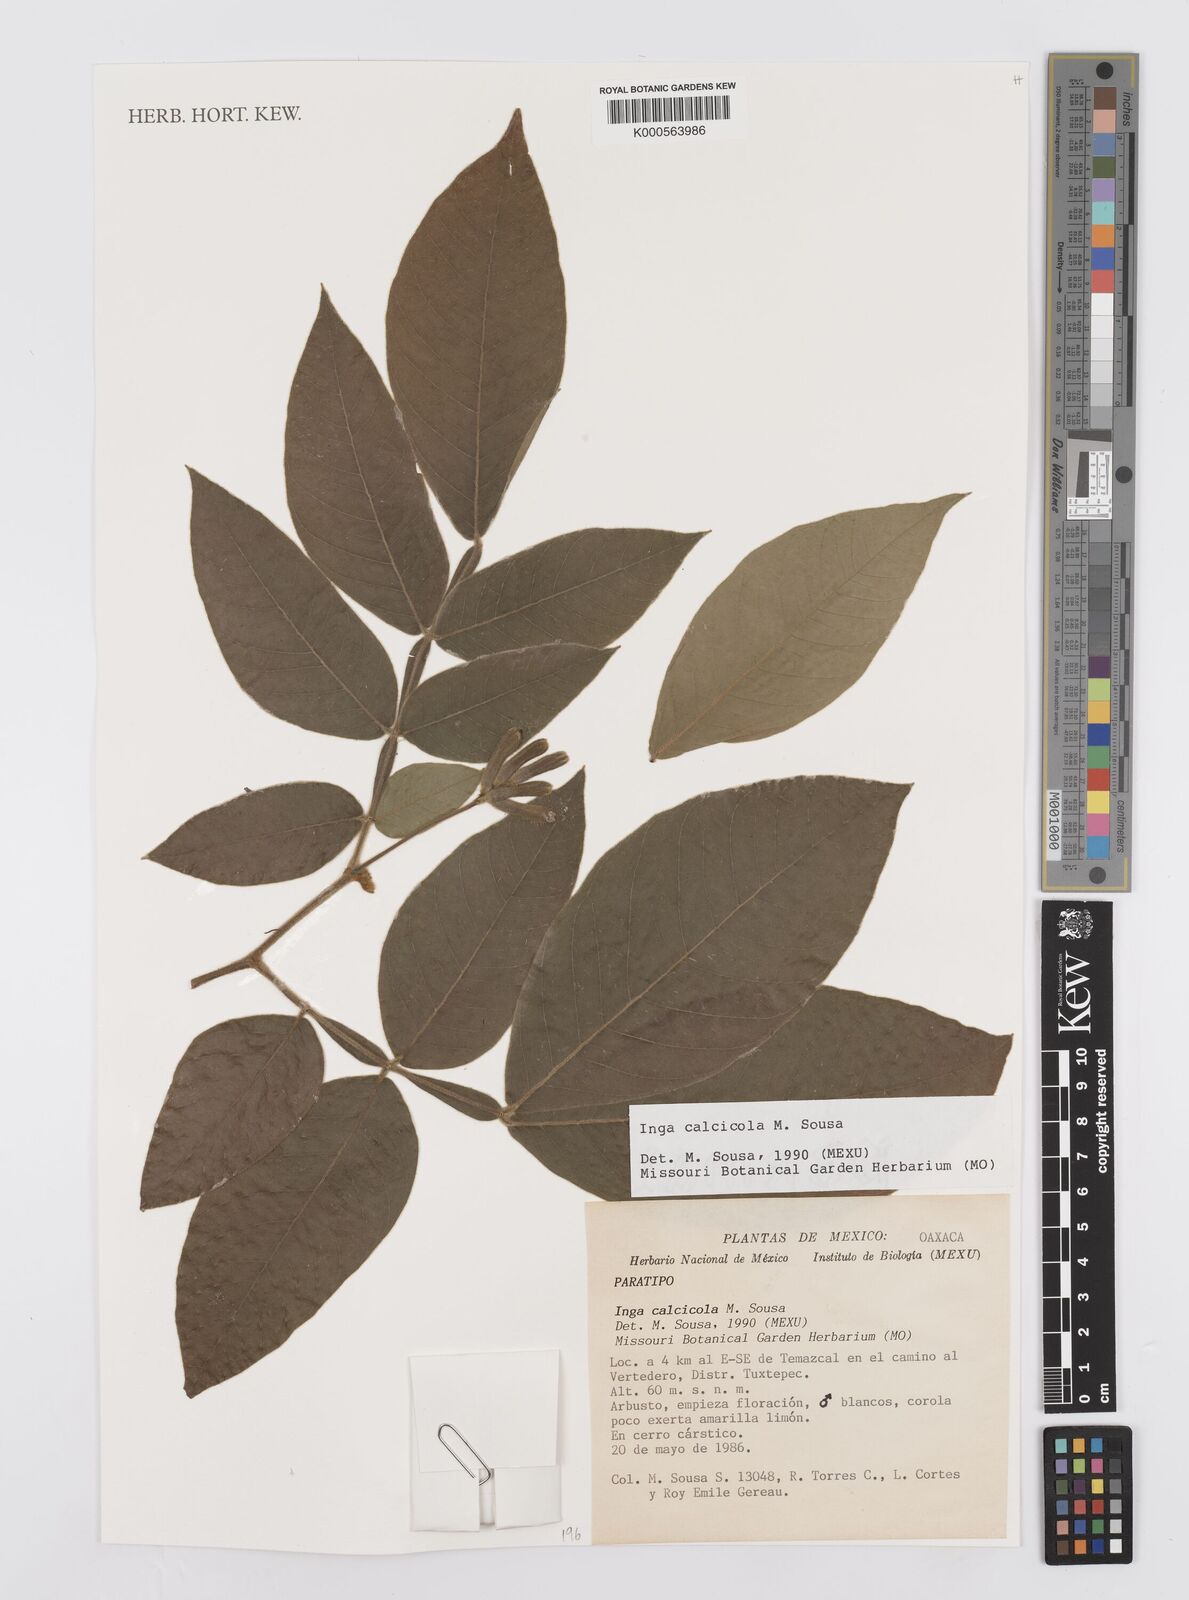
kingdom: Plantae
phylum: Tracheophyta
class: Magnoliopsida
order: Fabales
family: Fabaceae
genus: Inga
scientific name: Inga calcicola
